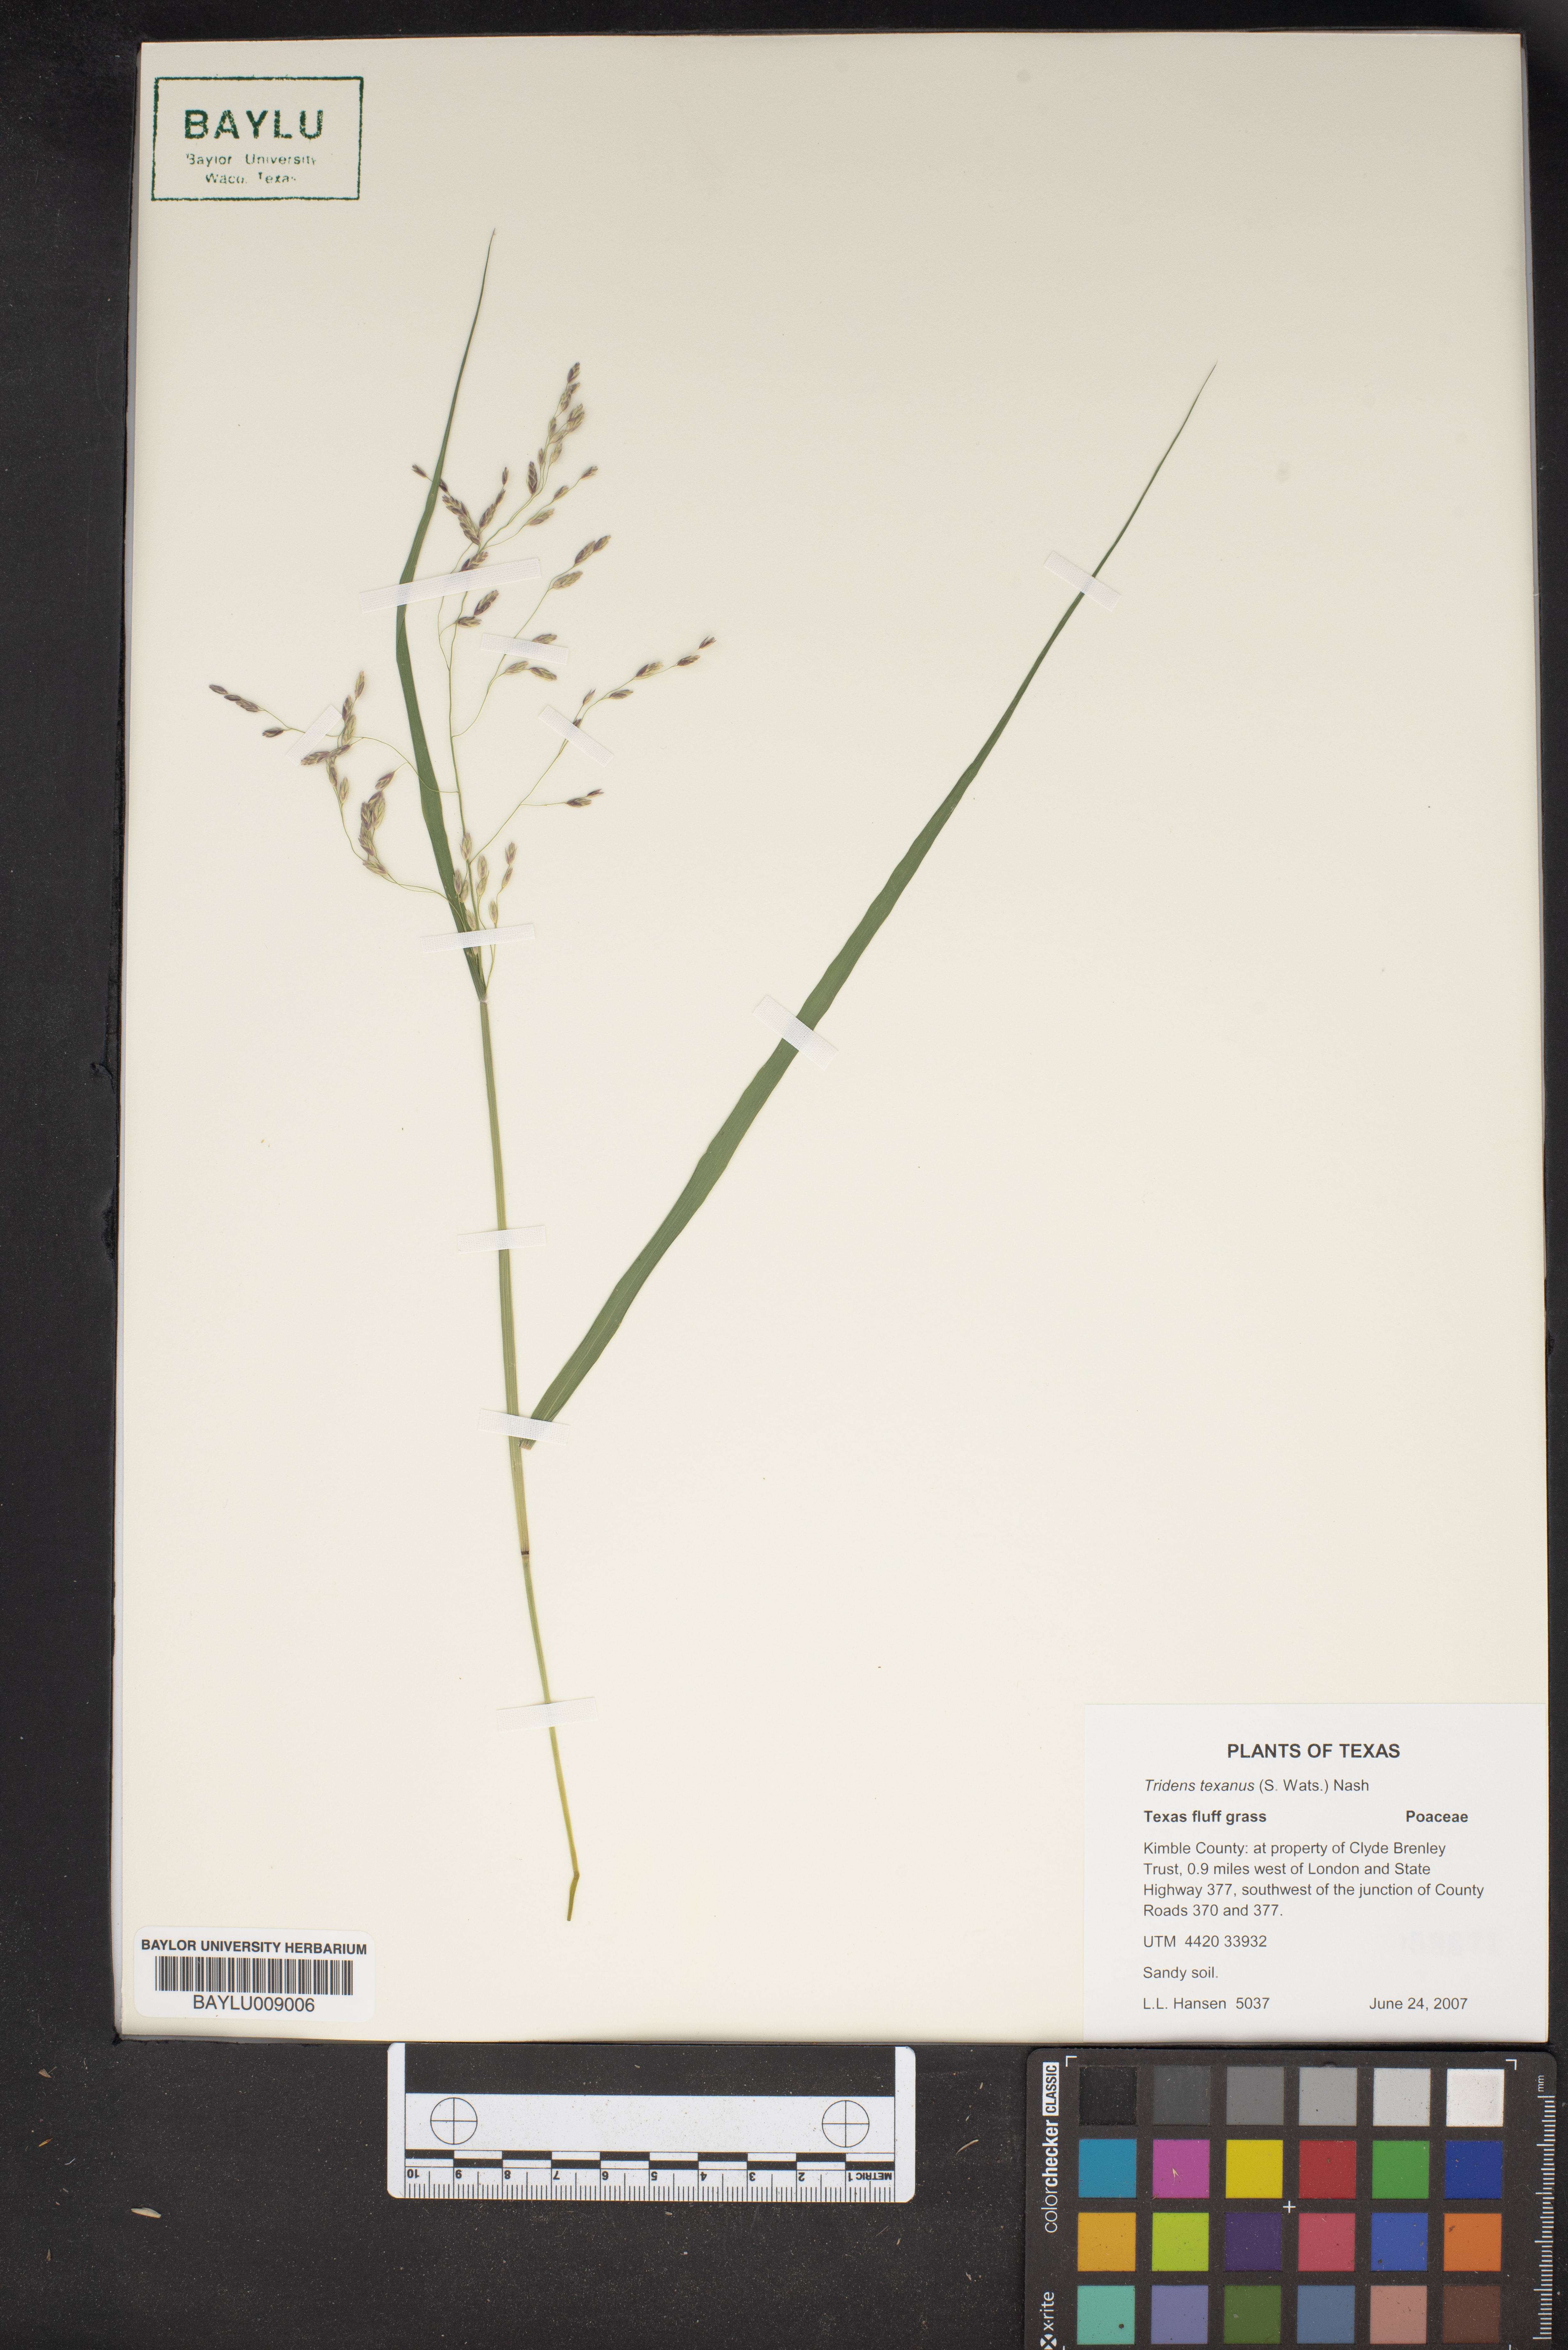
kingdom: Plantae
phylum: Tracheophyta
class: Liliopsida
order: Poales
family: Poaceae
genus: Tridens
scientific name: Tridens texanus
